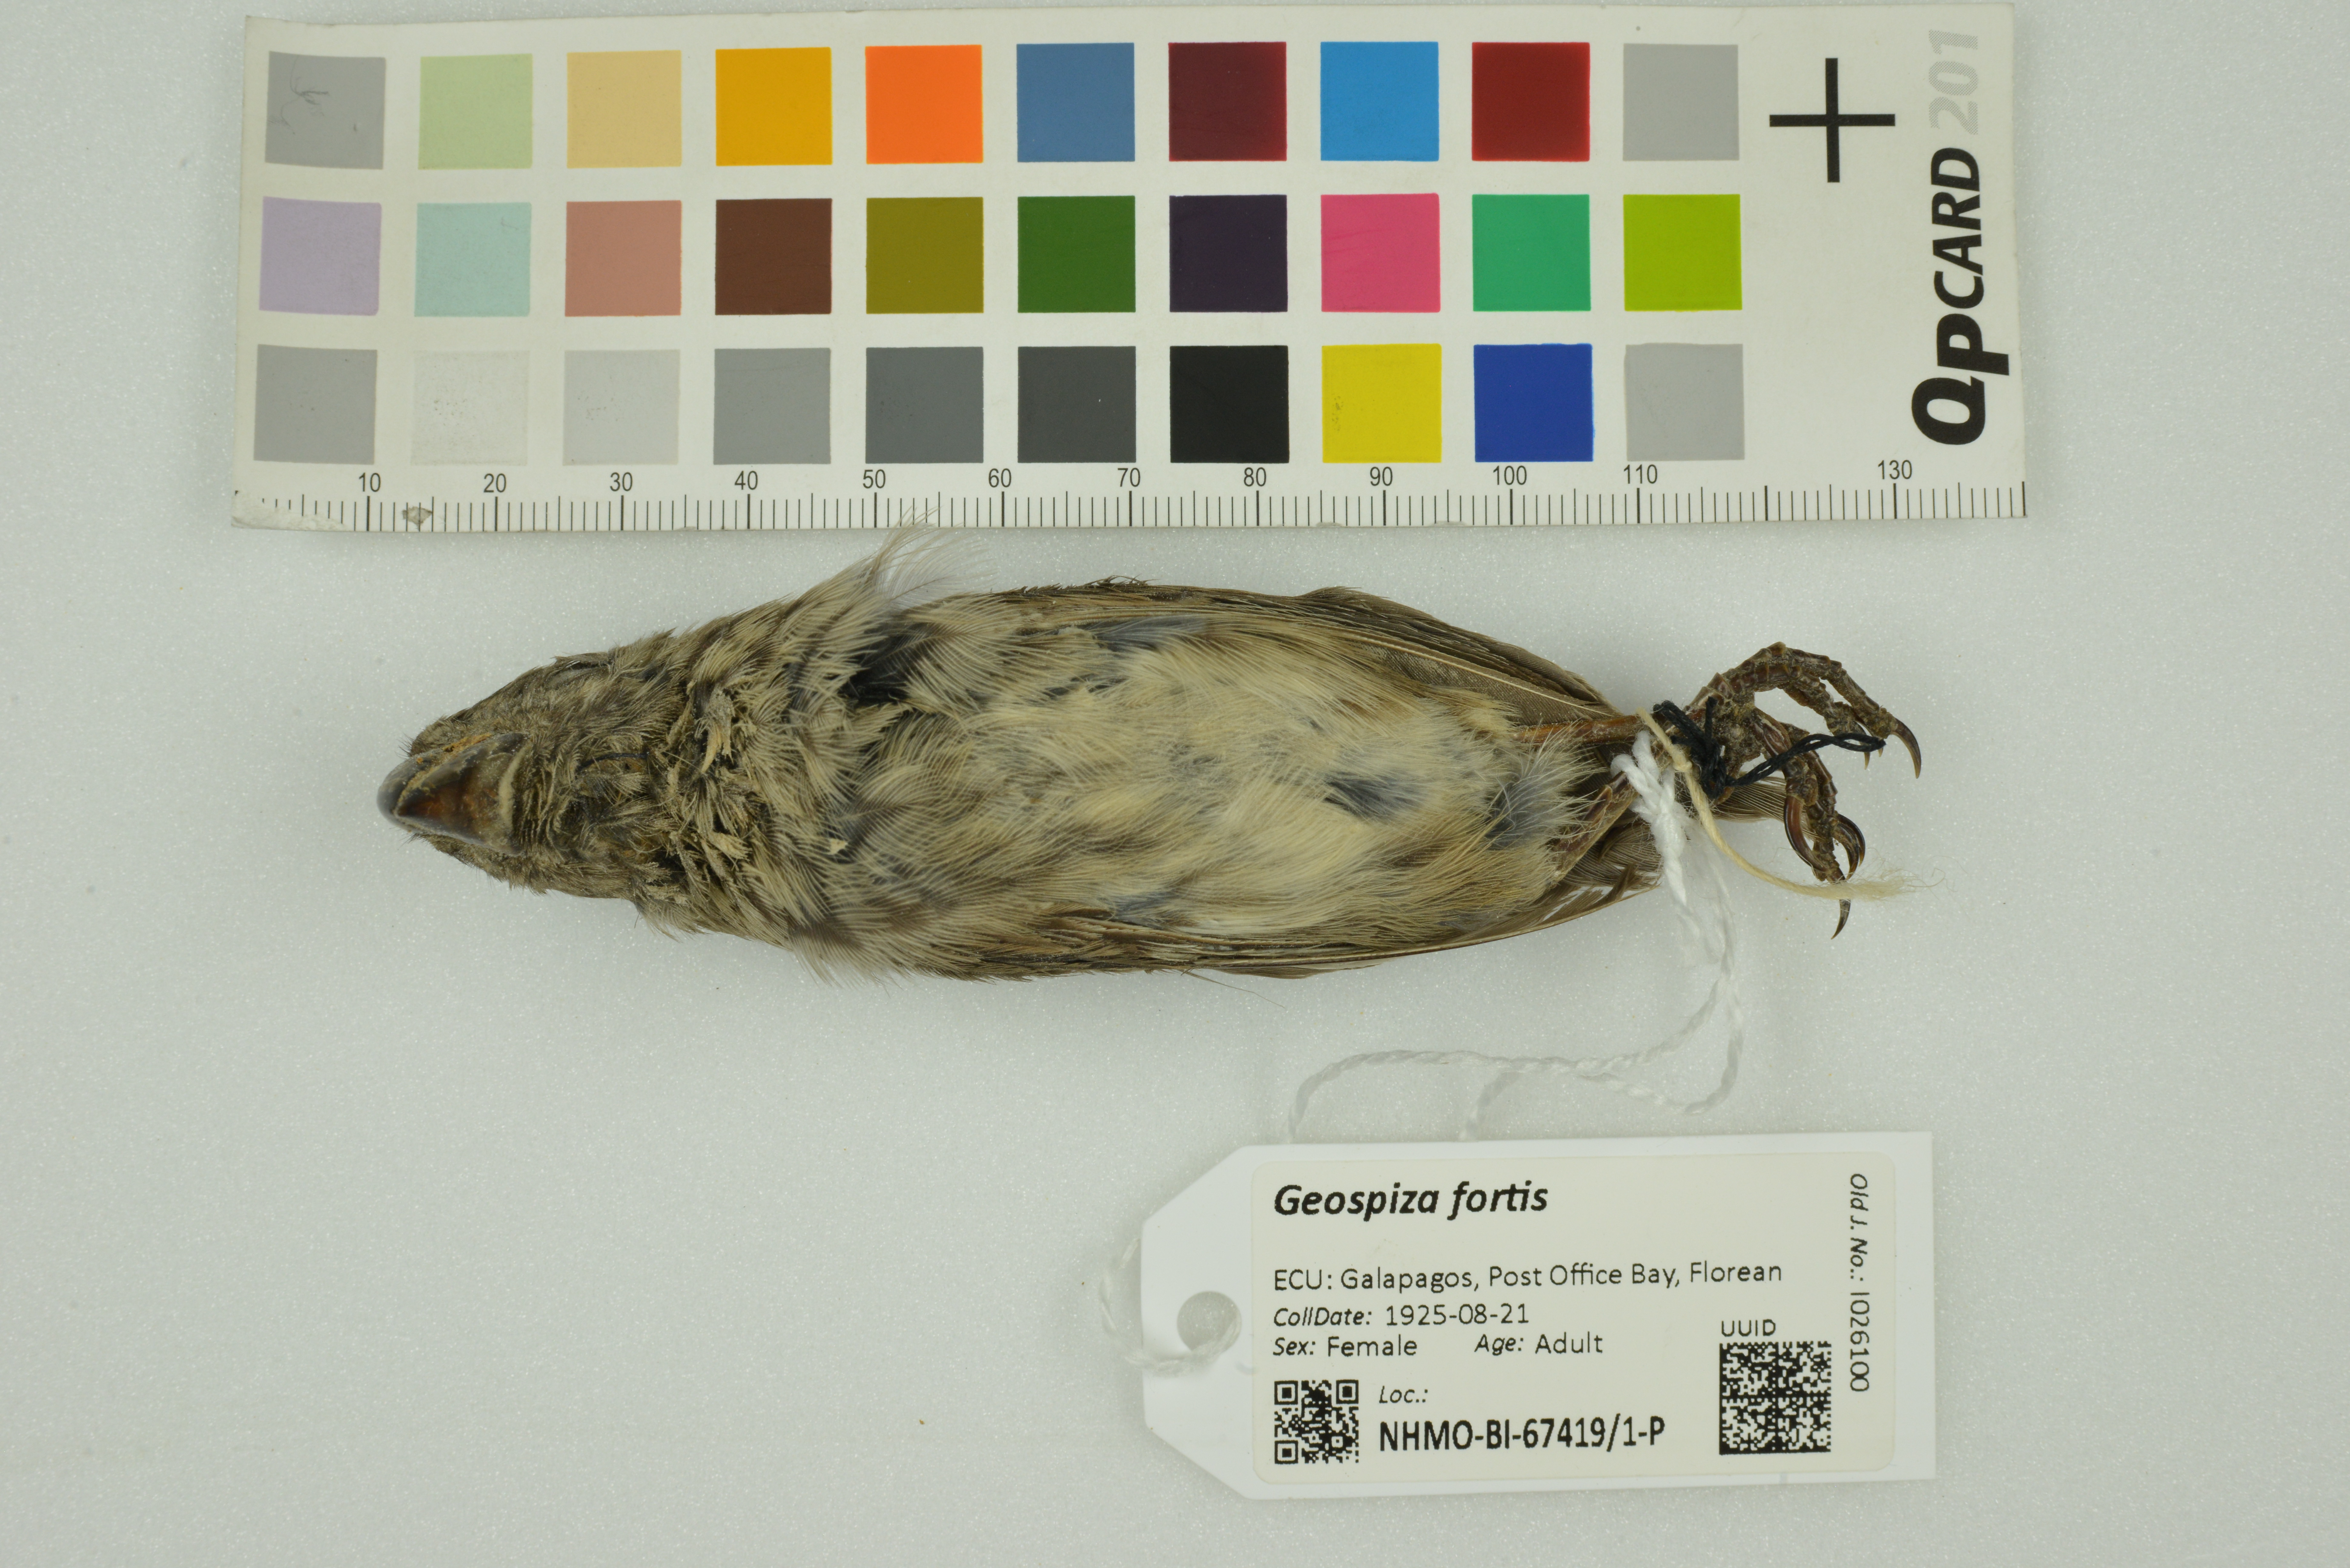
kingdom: Animalia
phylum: Chordata
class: Aves
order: Passeriformes
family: Thraupidae
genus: Geospiza
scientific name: Geospiza fortis
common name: Medium ground finch
